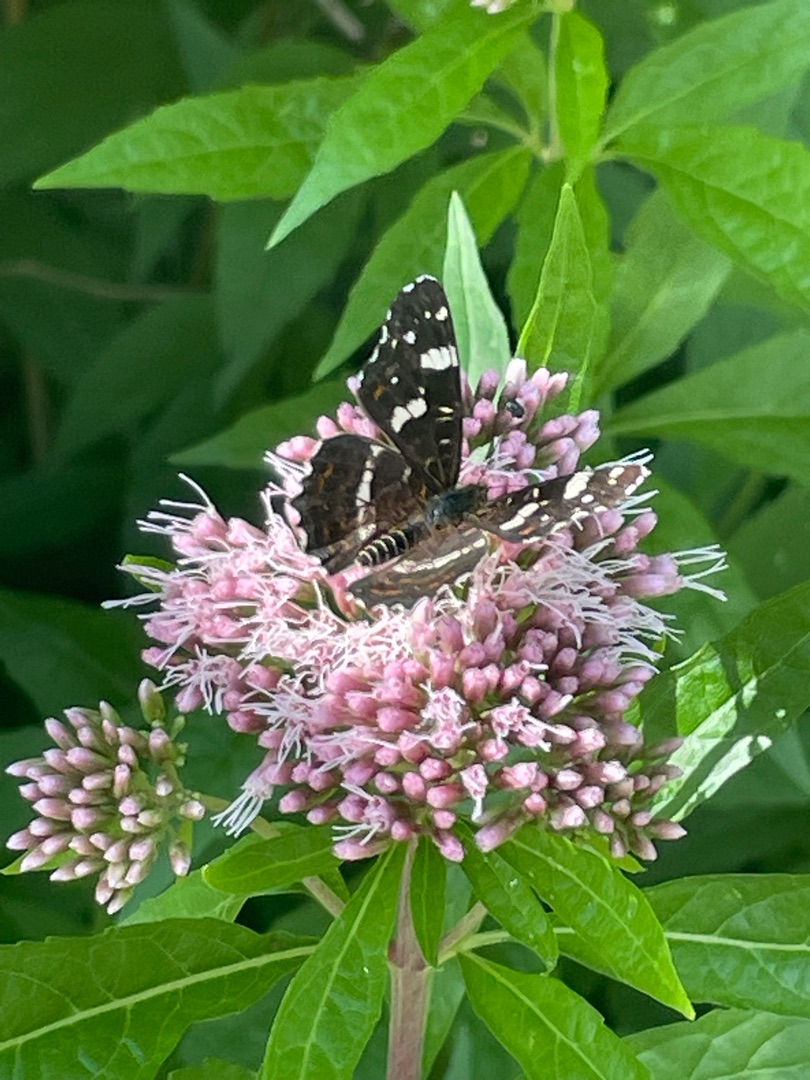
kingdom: Animalia
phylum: Arthropoda
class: Insecta
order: Lepidoptera
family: Nymphalidae
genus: Araschnia
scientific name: Araschnia levana
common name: Nældesommerfugl
